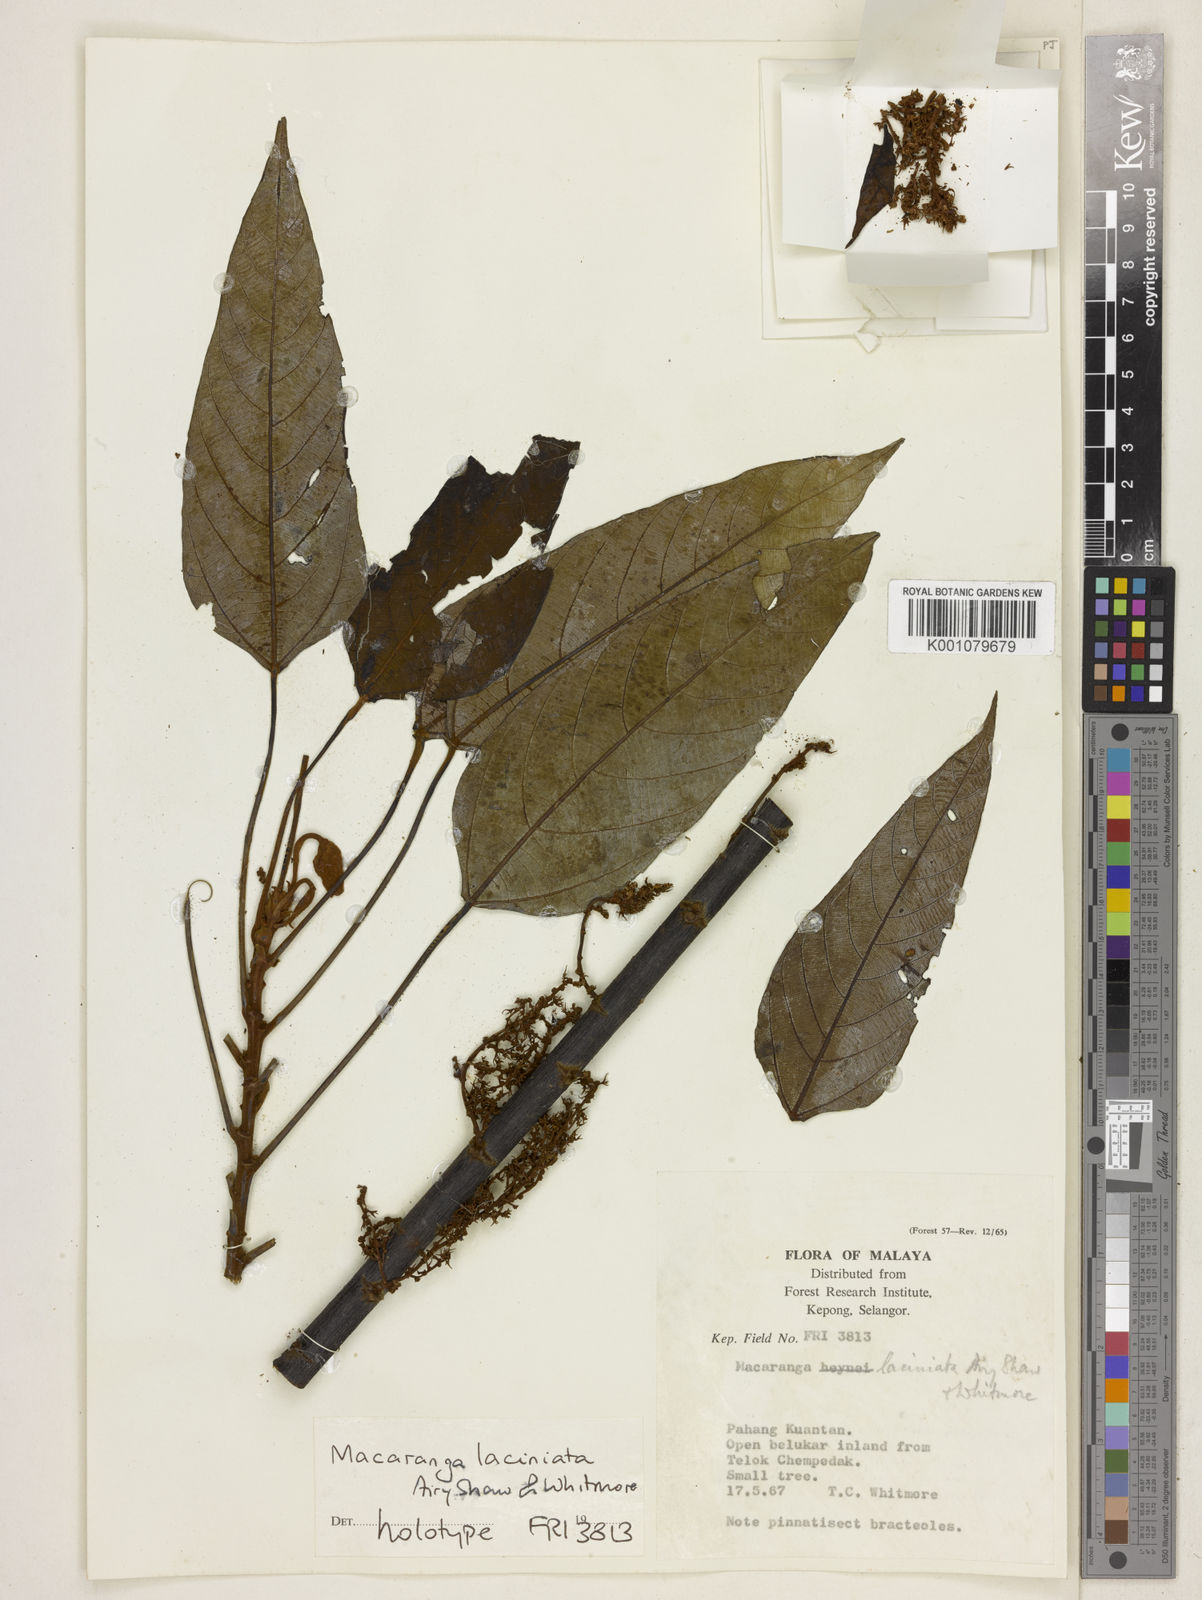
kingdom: Plantae
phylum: Tracheophyta
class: Magnoliopsida
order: Malpighiales
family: Euphorbiaceae
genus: Macaranga
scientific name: Macaranga laciniata
